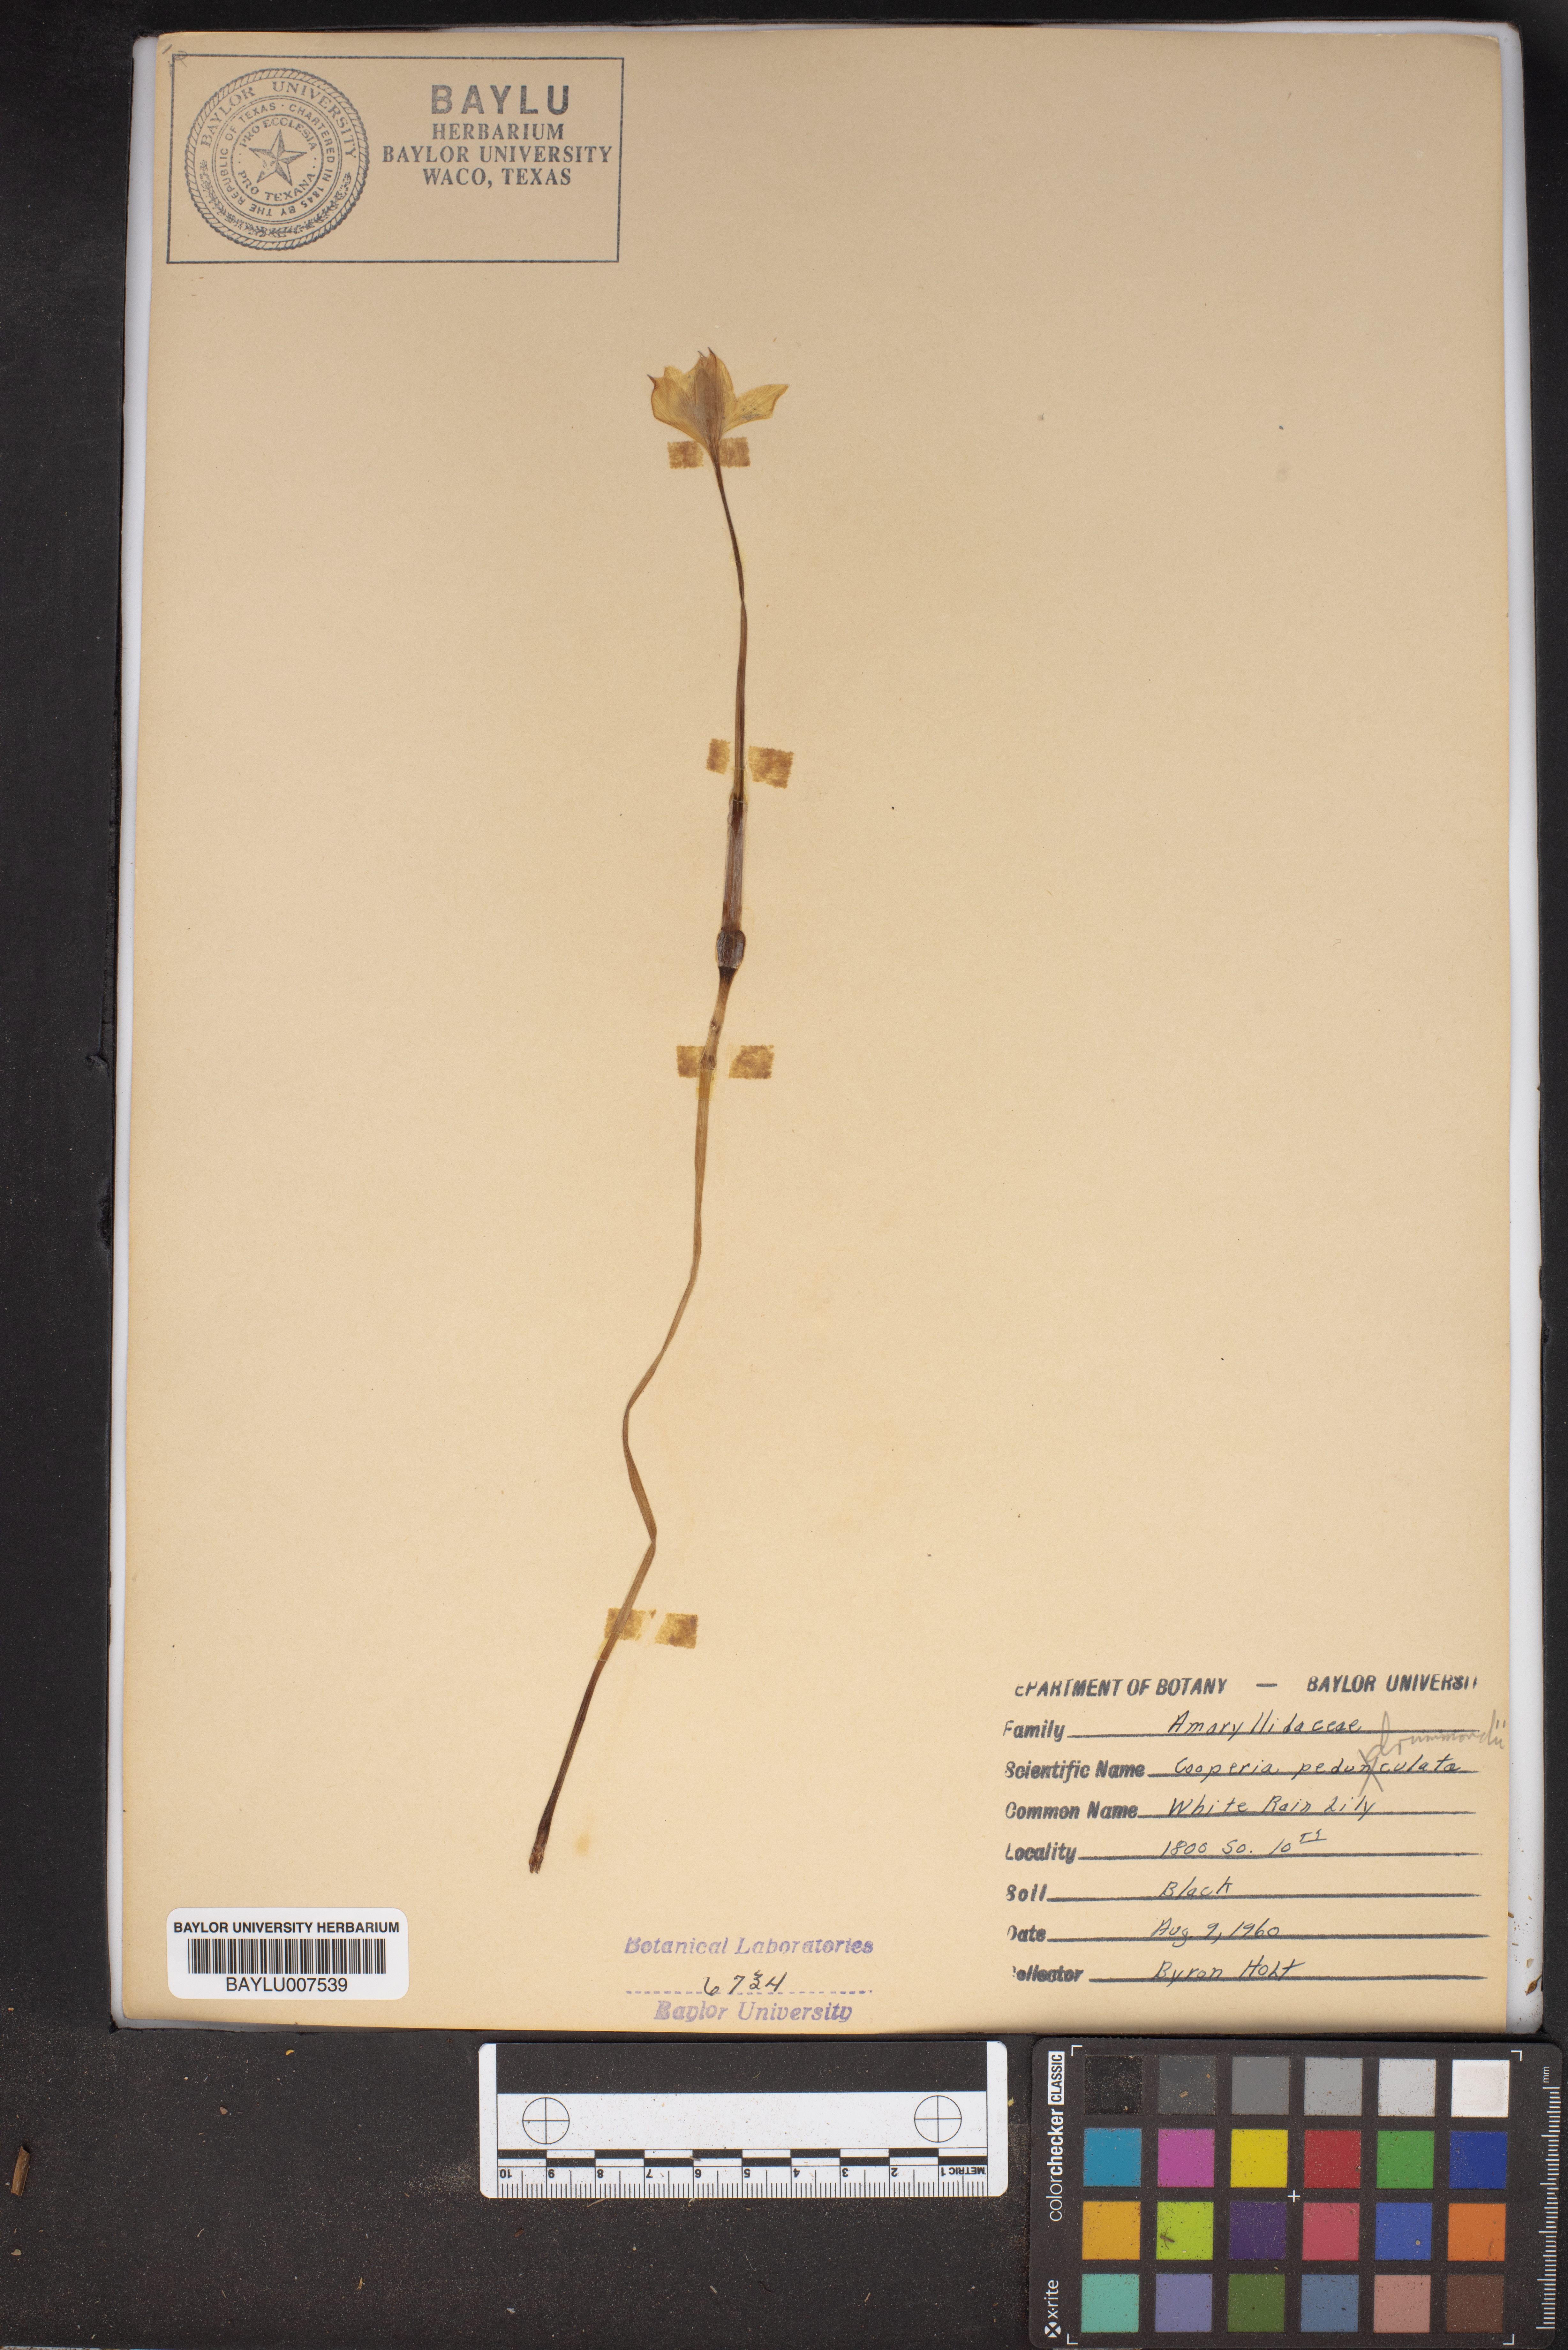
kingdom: Plantae
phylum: Tracheophyta
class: Liliopsida
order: Asparagales
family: Amaryllidaceae
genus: Zephyranthes
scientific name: Zephyranthes chlorosolen
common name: Evening rain-lily
